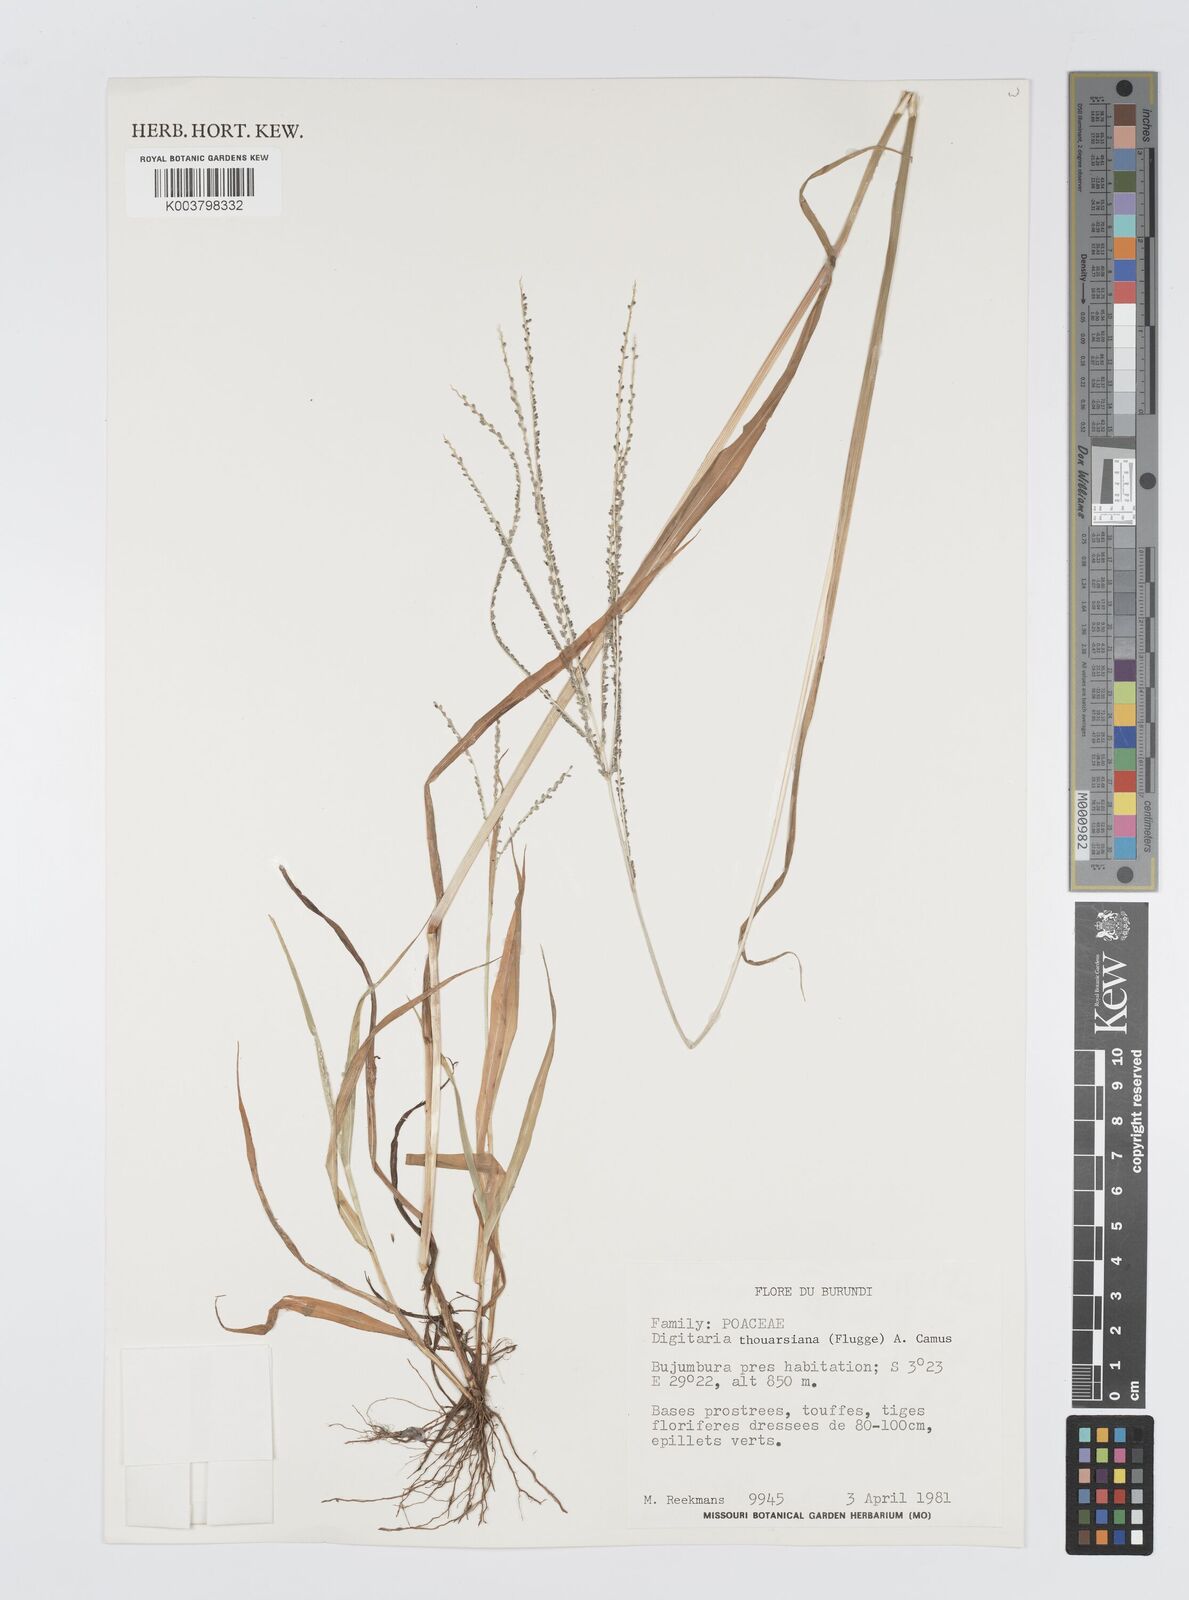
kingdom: Plantae
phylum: Tracheophyta
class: Liliopsida
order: Poales
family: Poaceae
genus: Digitaria
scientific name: Digitaria thouarsiana
